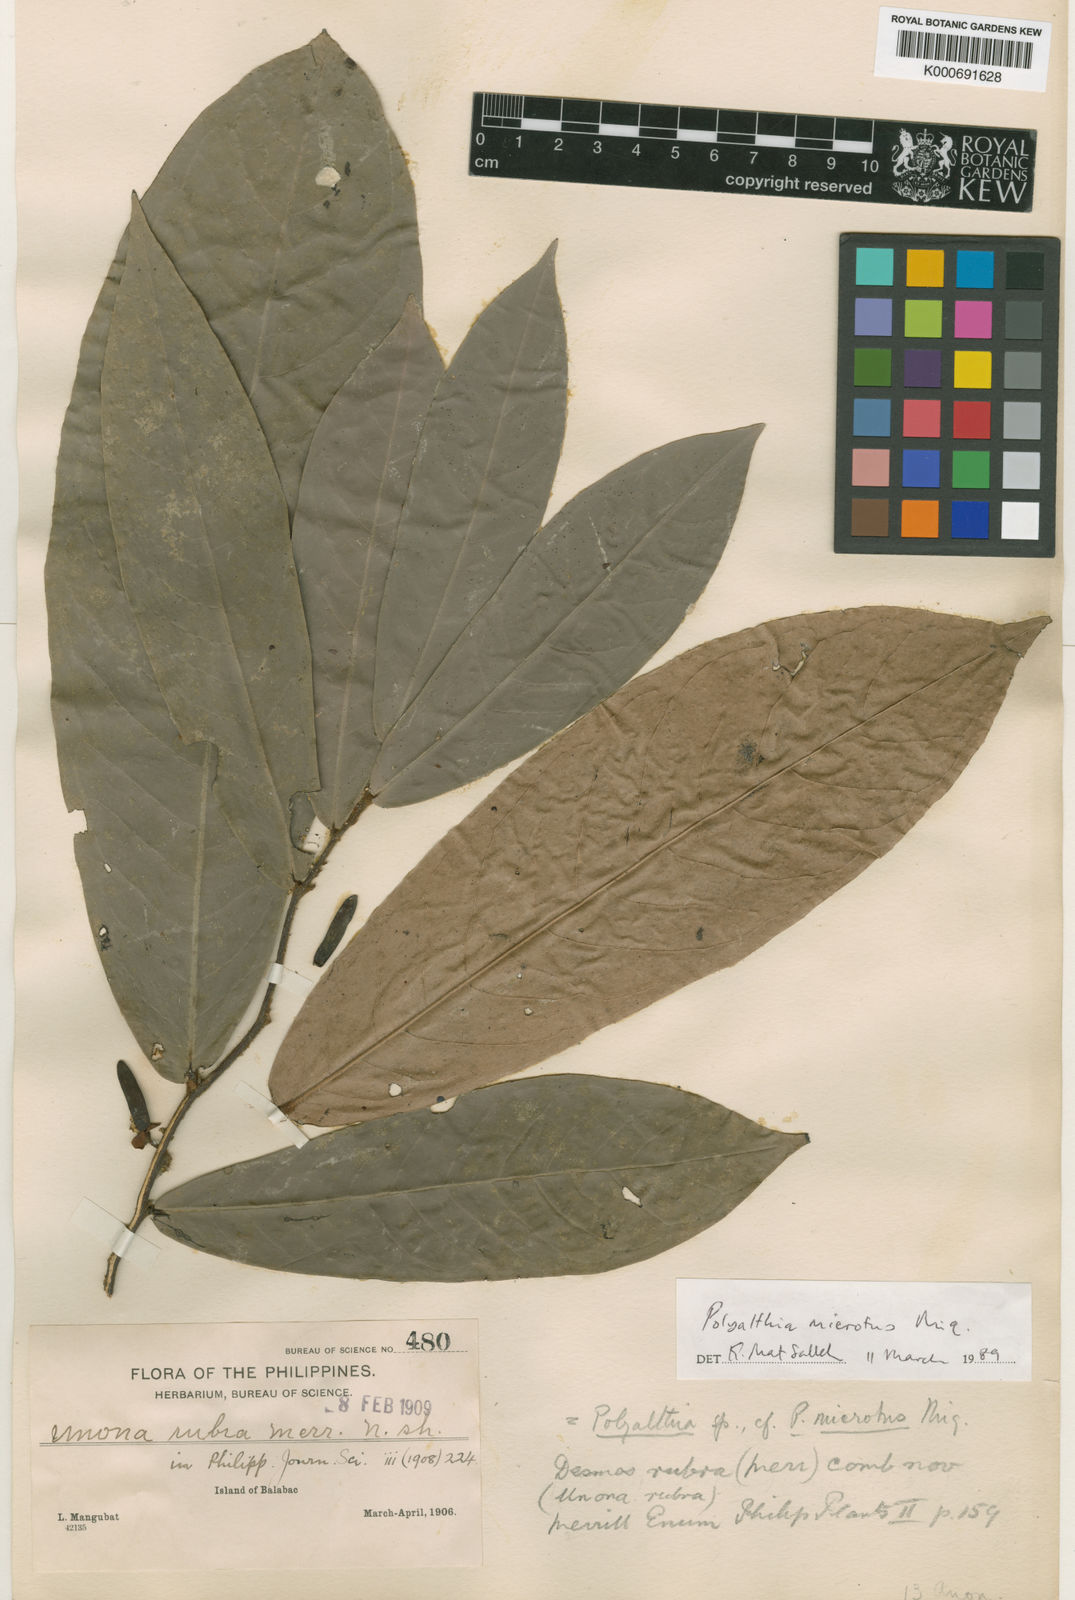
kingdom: Plantae
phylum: Tracheophyta
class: Magnoliopsida
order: Magnoliales
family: Annonaceae
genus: Polyalthia
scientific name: Polyalthia microtus
